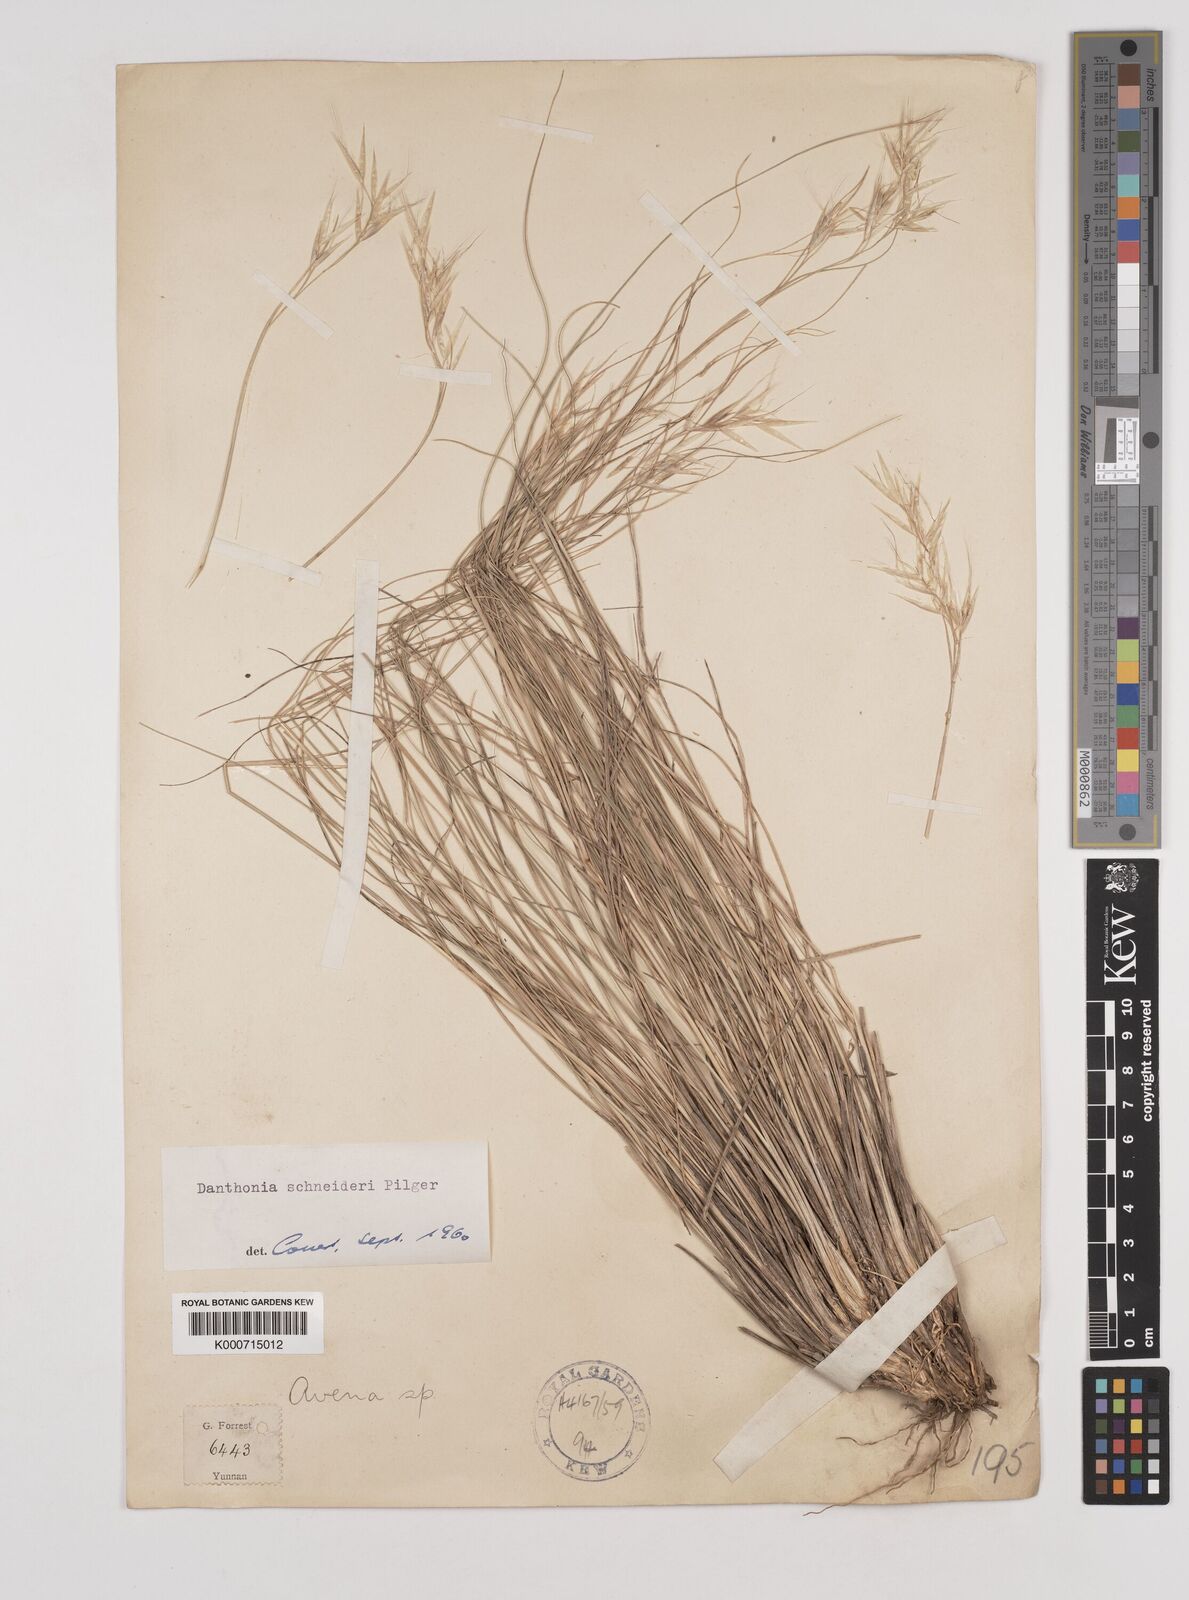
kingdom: Plantae
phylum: Tracheophyta
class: Liliopsida
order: Poales
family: Poaceae
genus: Rytidosperma
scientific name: Rytidosperma
